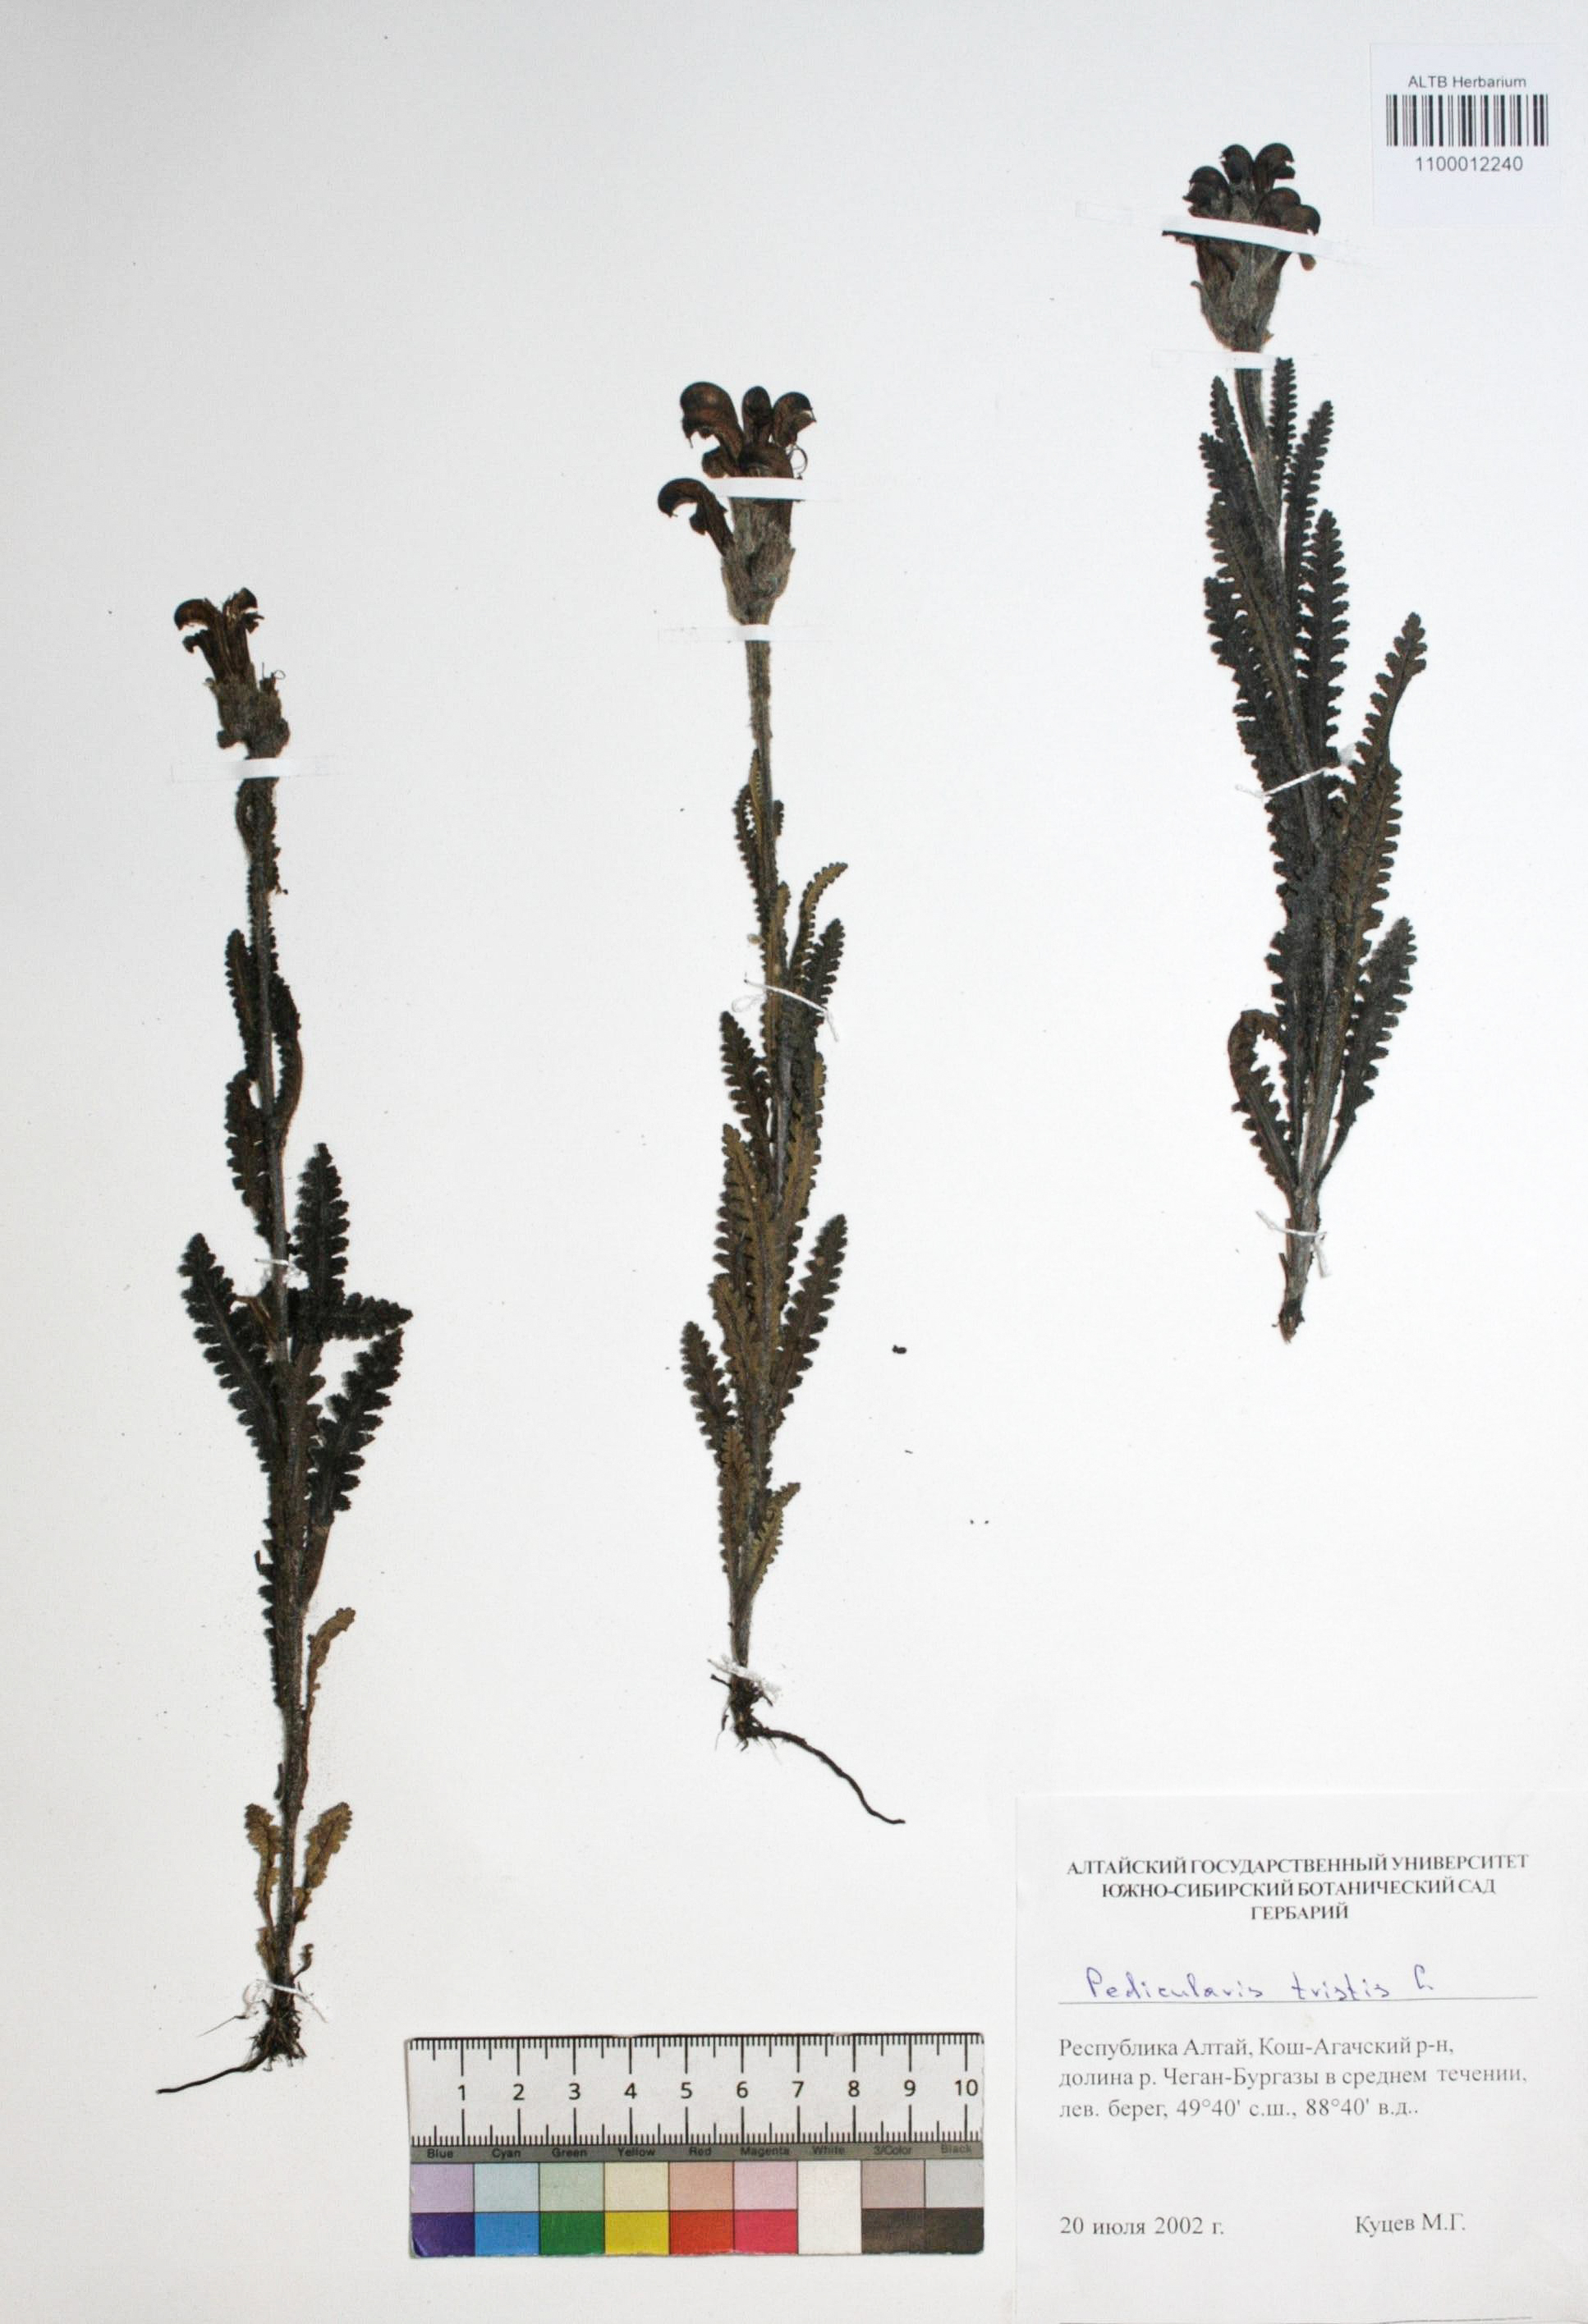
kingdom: Plantae
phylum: Tracheophyta
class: Magnoliopsida
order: Lamiales
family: Orobanchaceae
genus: Pedicularis
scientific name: Pedicularis tristis
